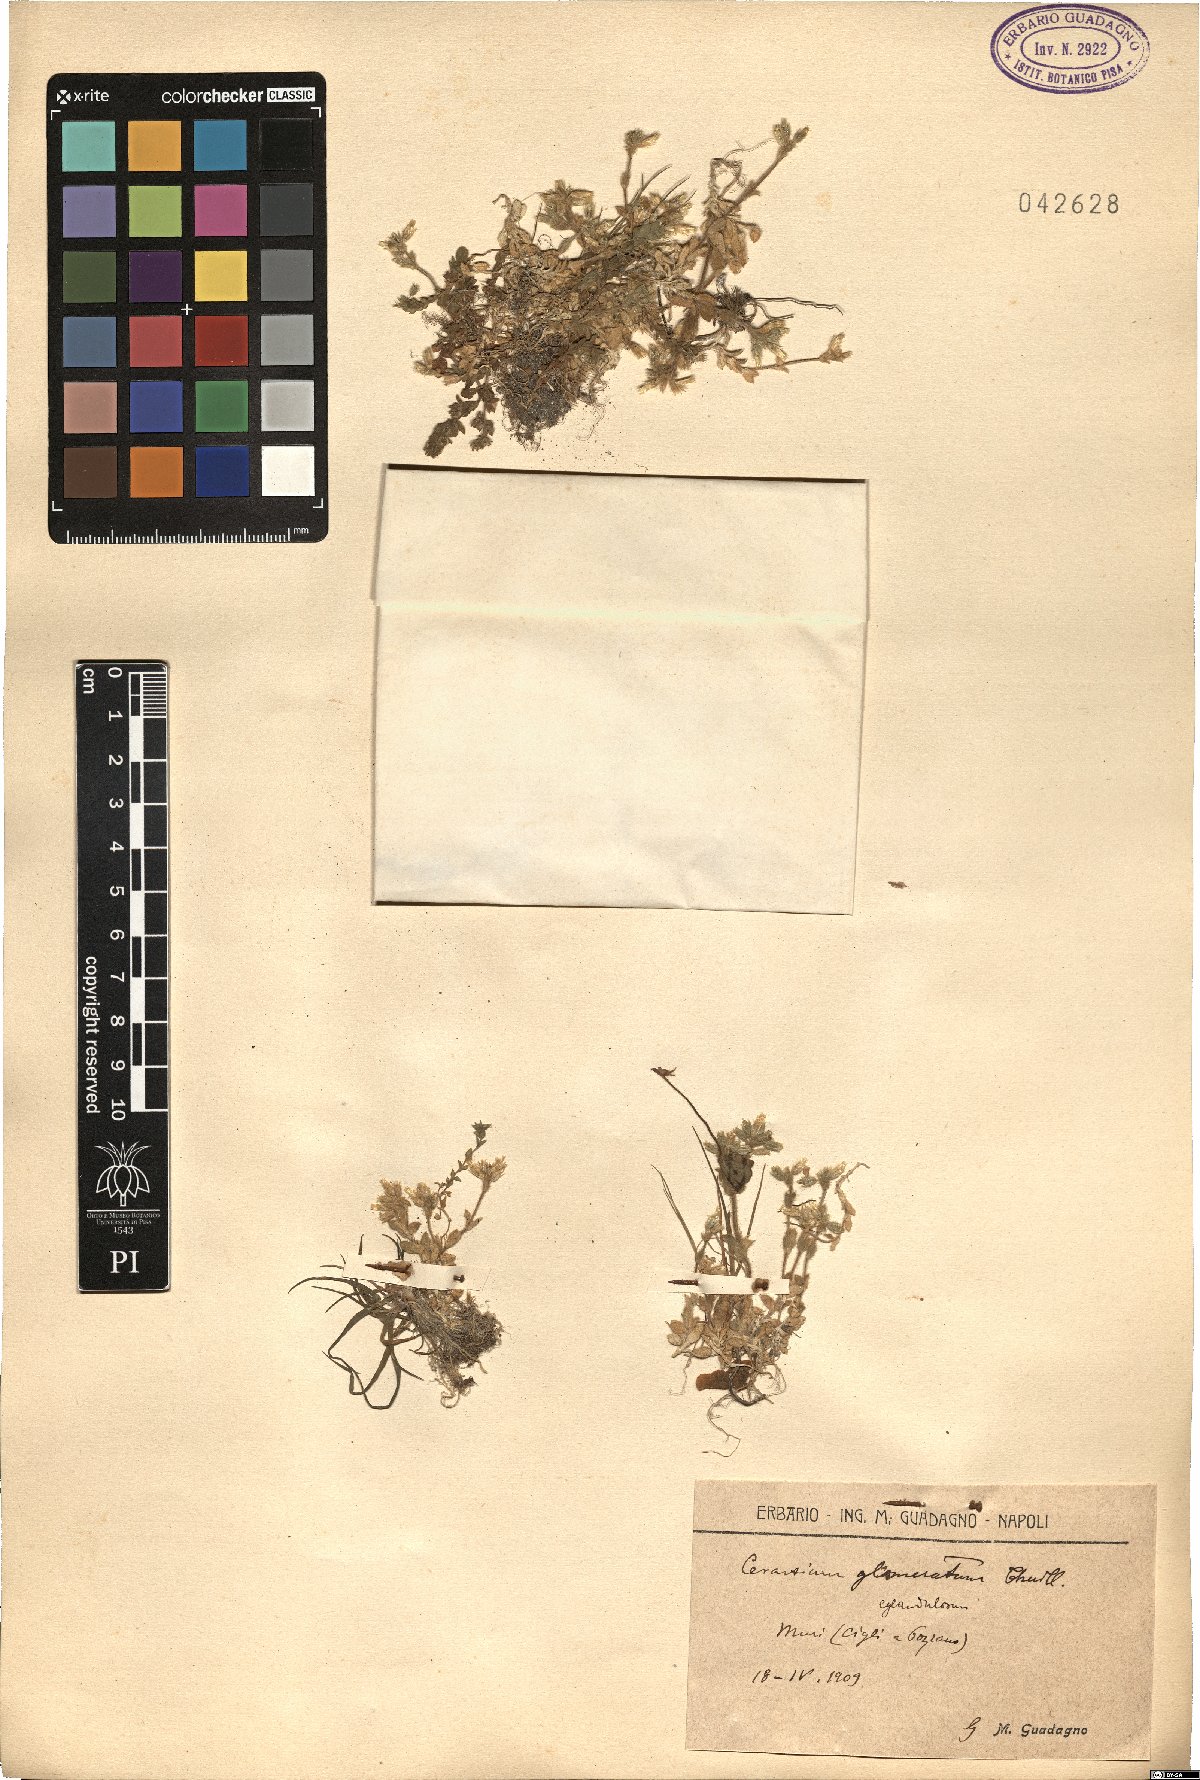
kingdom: Plantae
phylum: Tracheophyta
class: Magnoliopsida
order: Caryophyllales
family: Caryophyllaceae
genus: Cerastium
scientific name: Cerastium glomeratum
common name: Sticky chickweed
